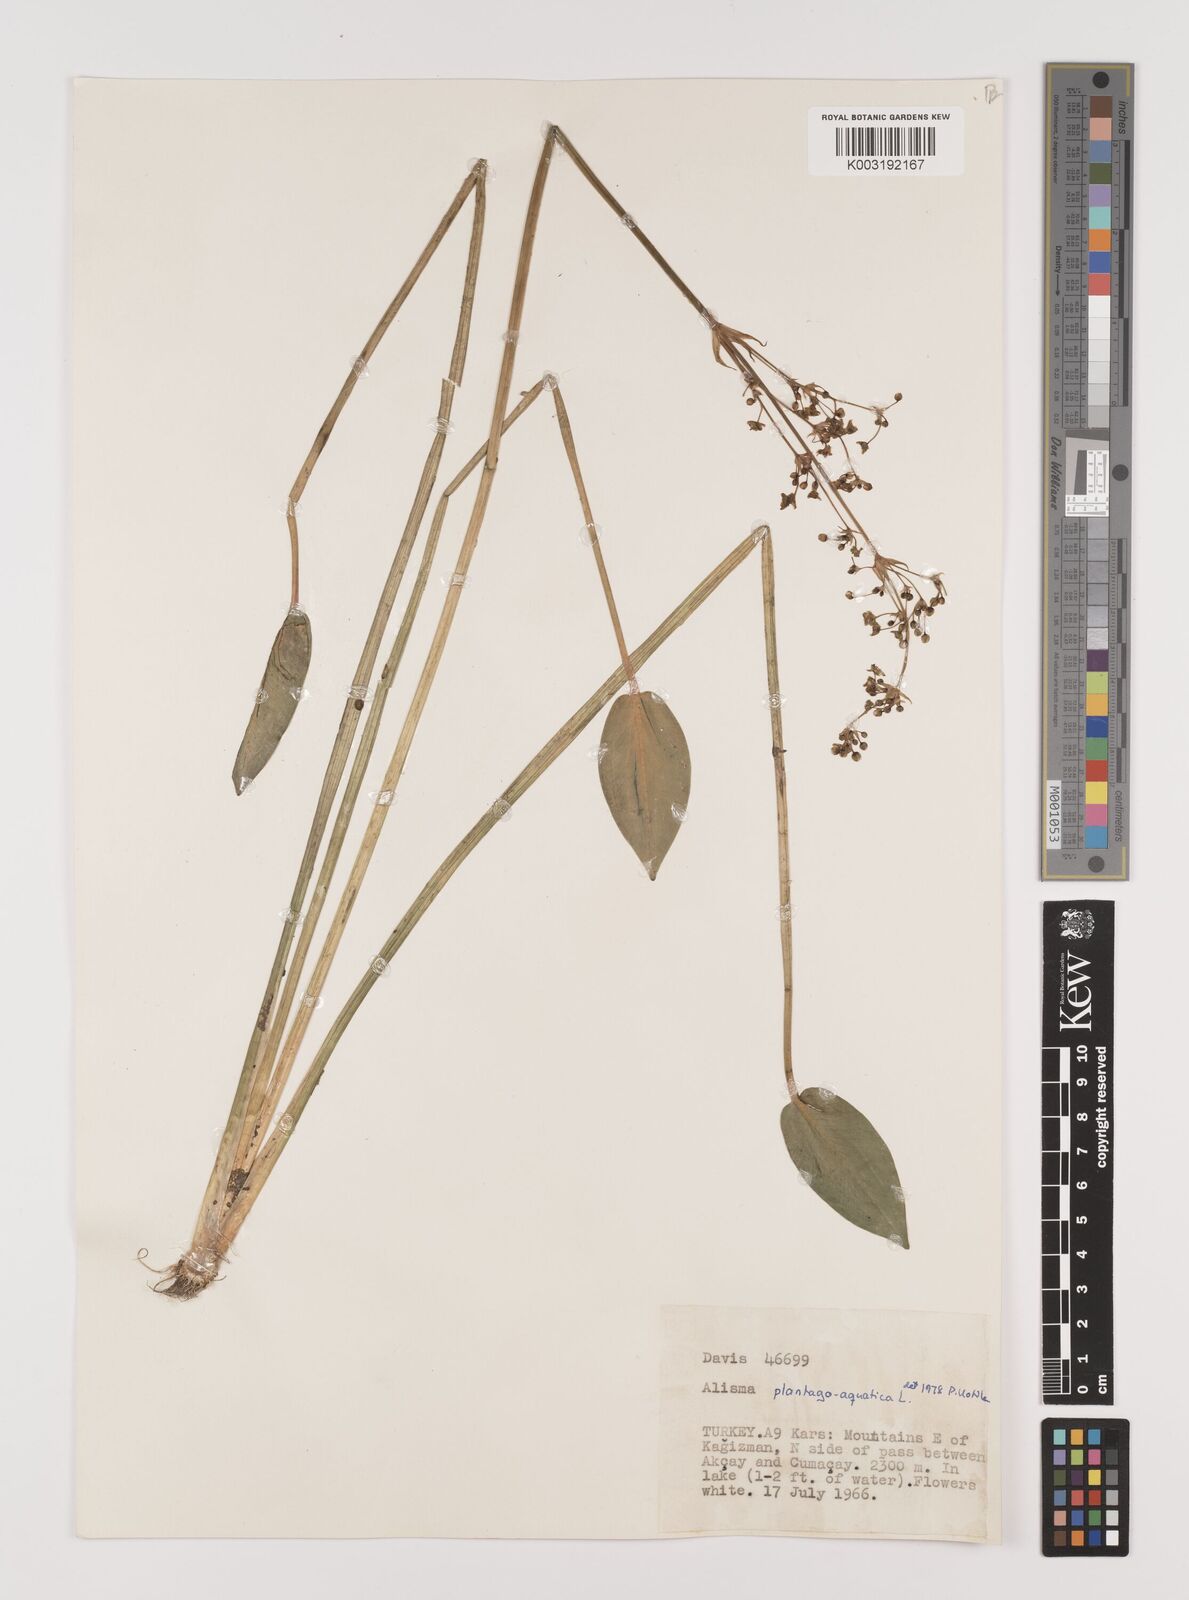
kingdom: Plantae
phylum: Tracheophyta
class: Liliopsida
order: Alismatales
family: Alismataceae
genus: Alisma
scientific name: Alisma plantago-aquatica
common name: Water-plantain
